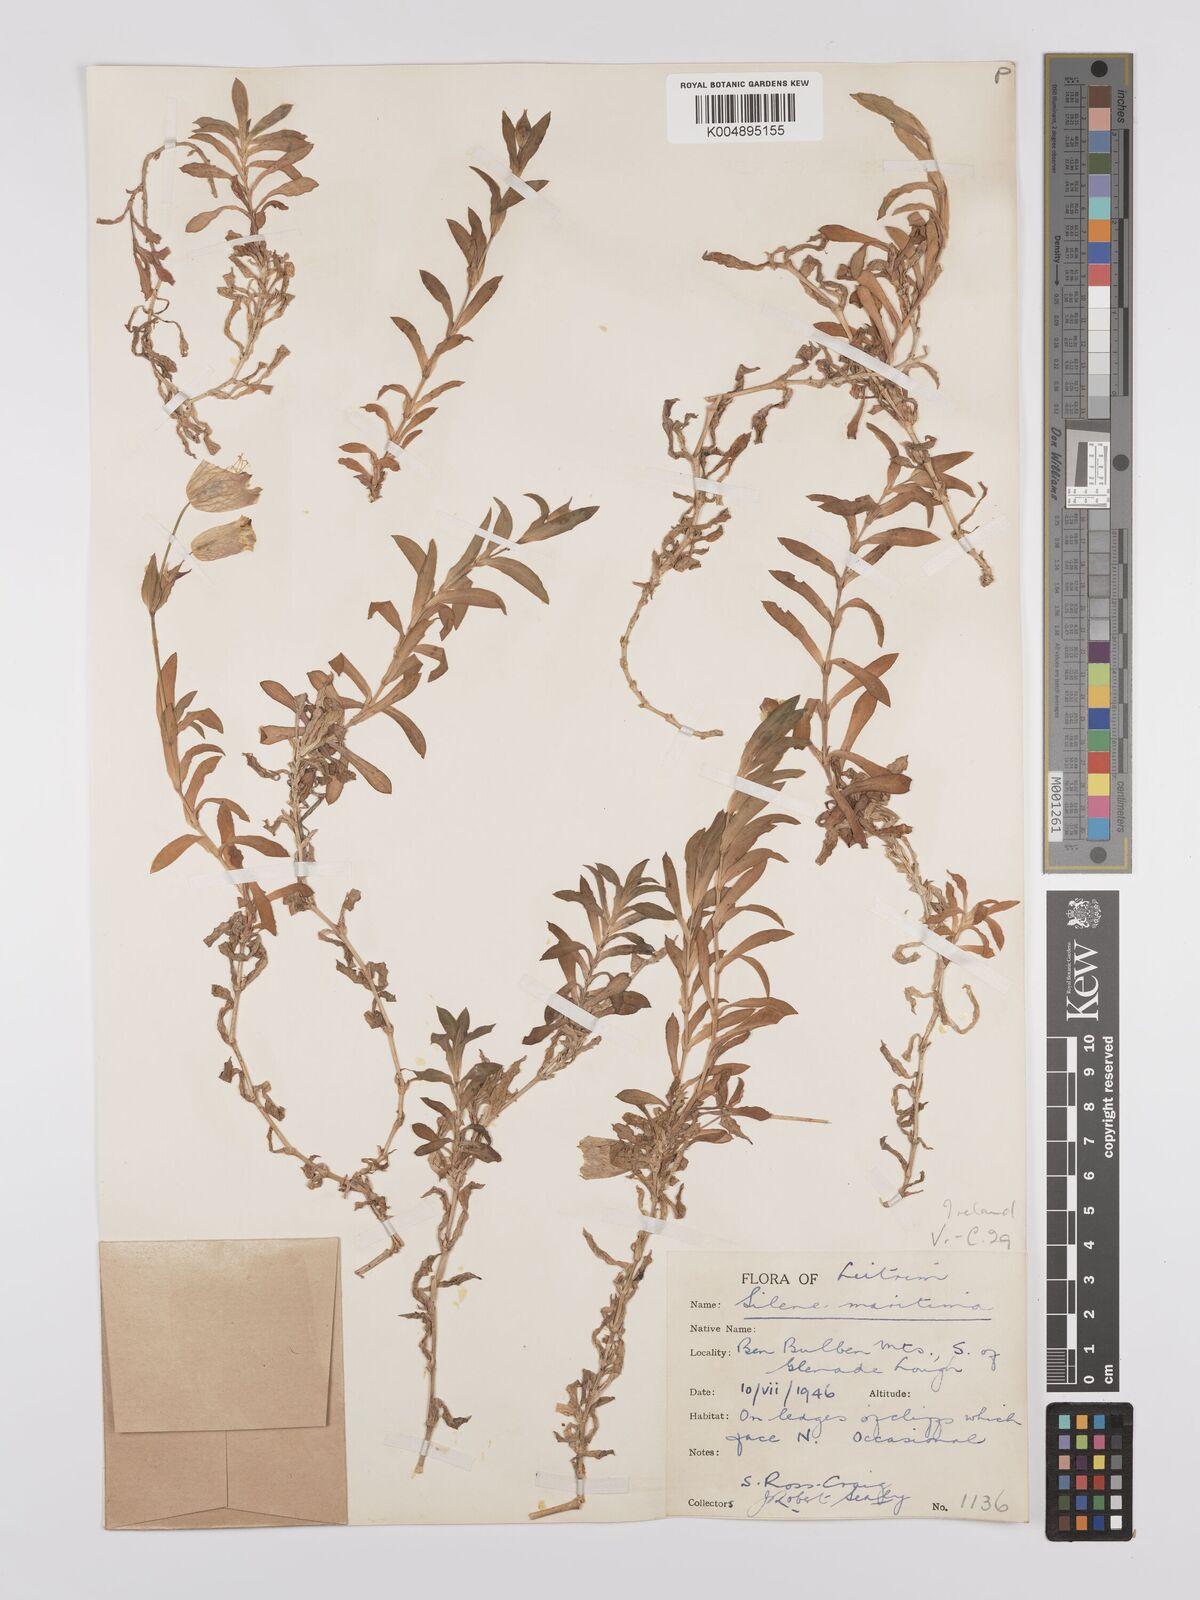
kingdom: Plantae
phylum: Tracheophyta
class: Magnoliopsida
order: Caryophyllales
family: Caryophyllaceae
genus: Silene
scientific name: Silene uniflora
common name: Sea campion
